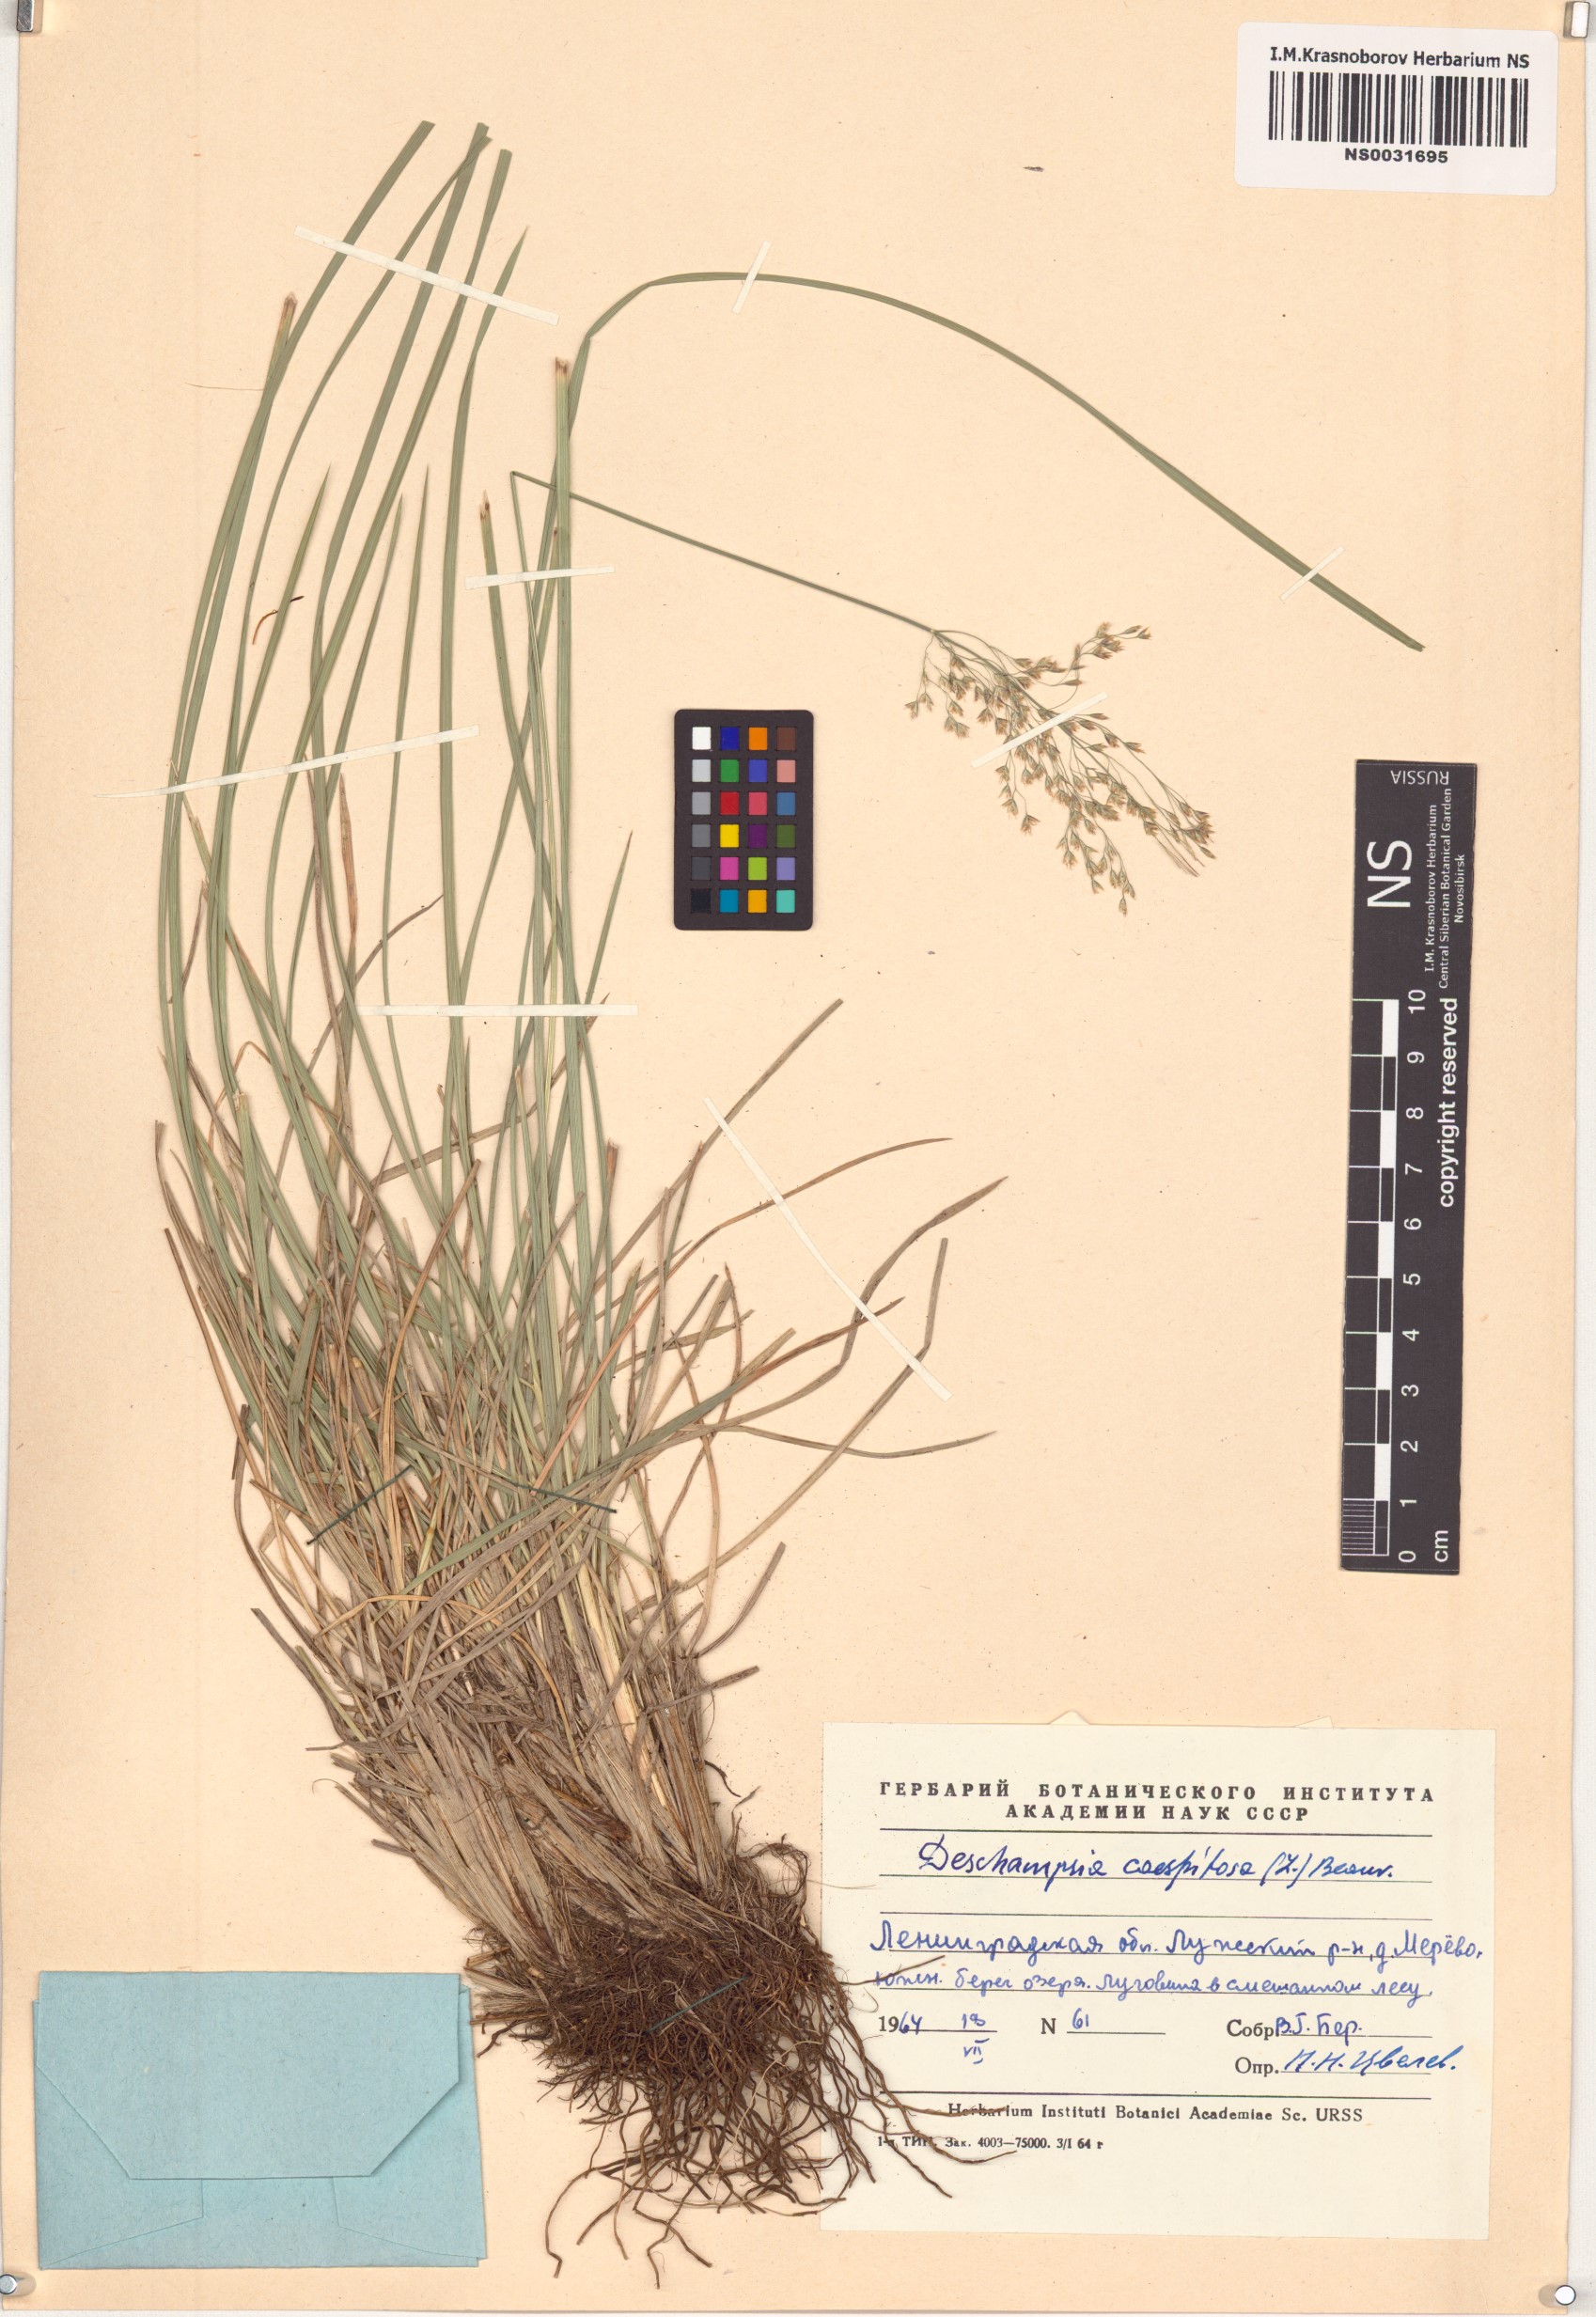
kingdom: Plantae
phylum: Tracheophyta
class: Liliopsida
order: Poales
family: Poaceae
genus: Deschampsia
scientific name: Deschampsia cespitosa
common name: Tufted hair-grass
